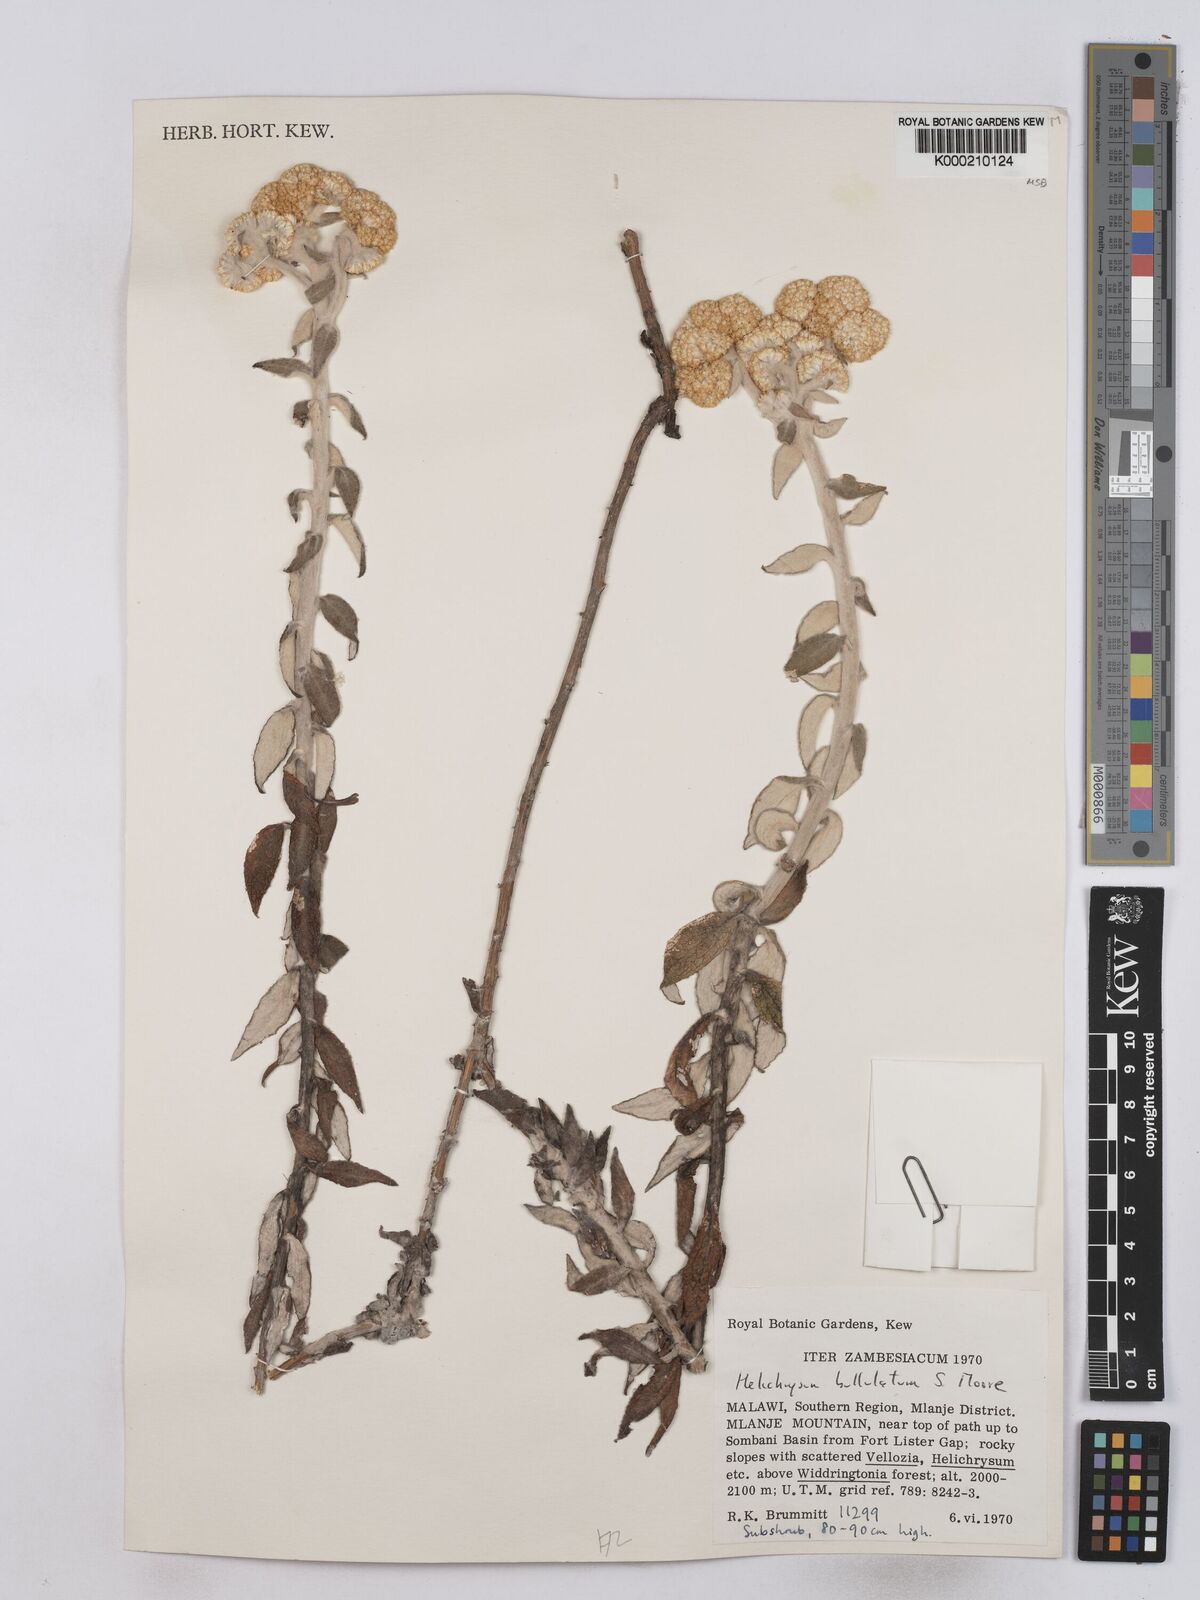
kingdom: Plantae
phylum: Tracheophyta
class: Magnoliopsida
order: Asterales
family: Asteraceae
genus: Helichrysum
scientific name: Helichrysum bullulatum
